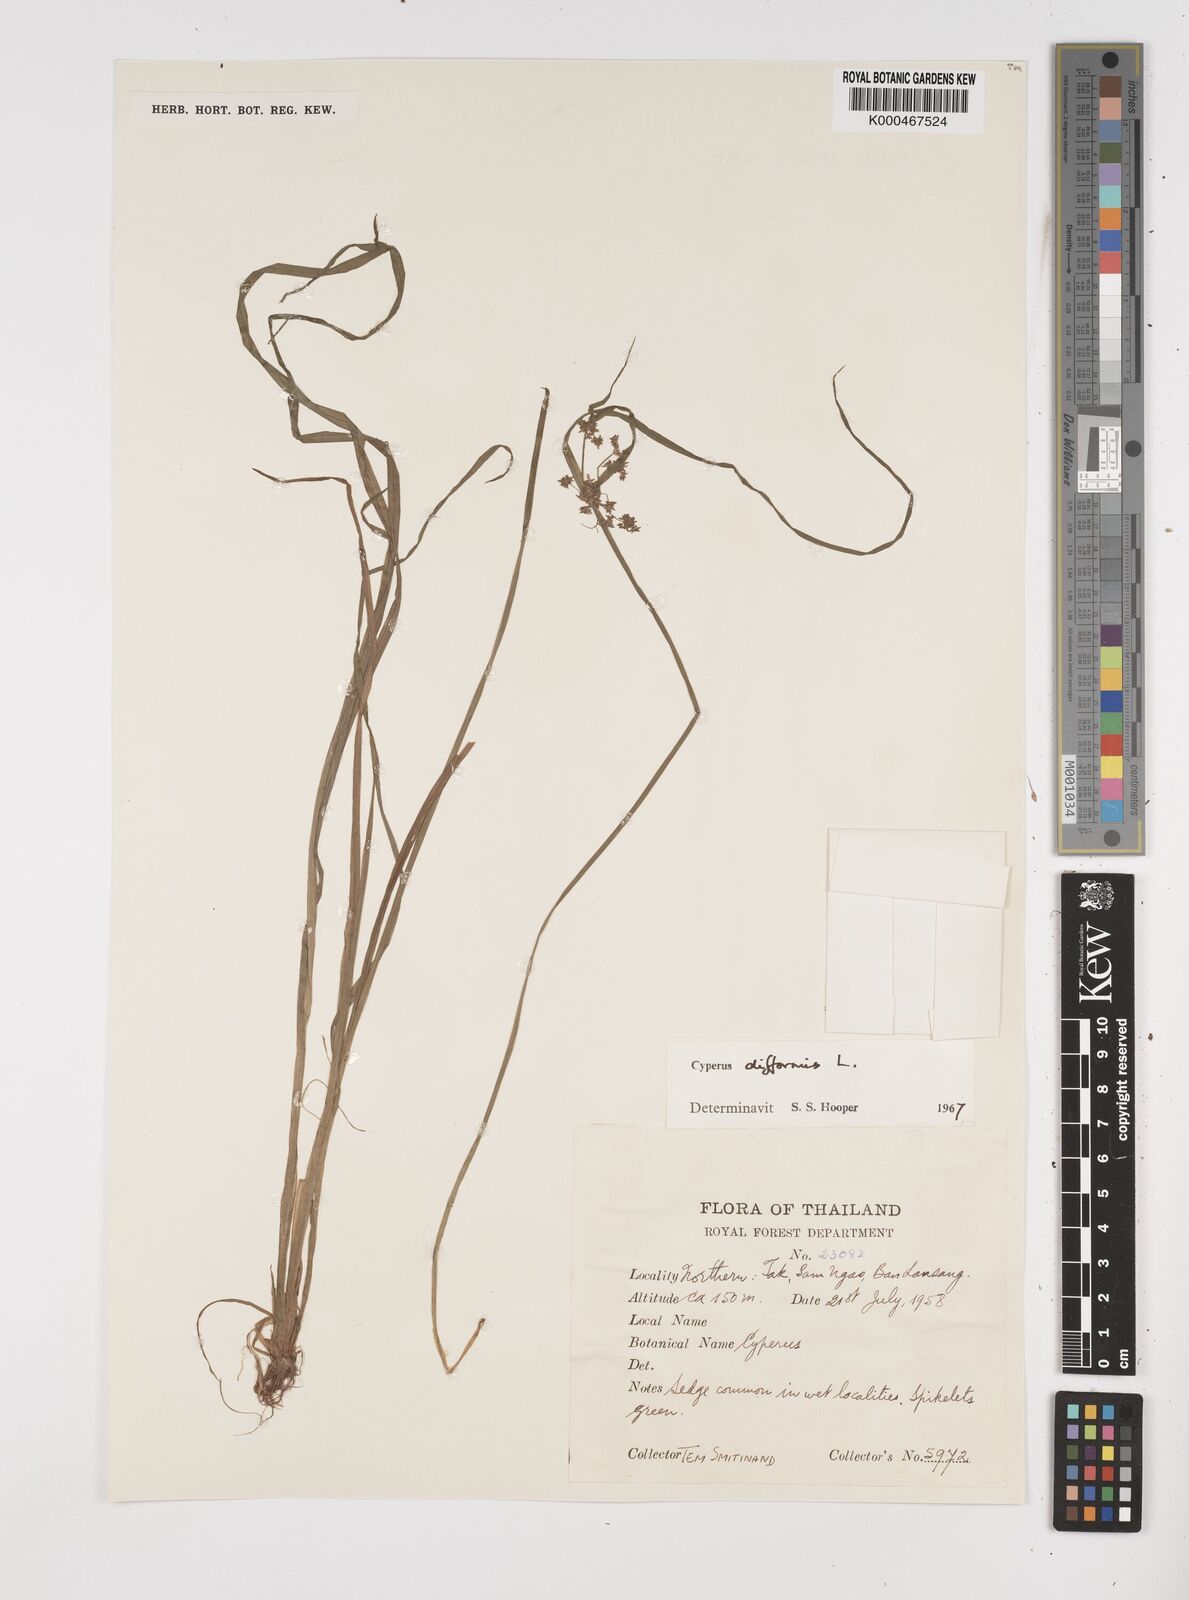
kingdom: Plantae
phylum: Tracheophyta
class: Liliopsida
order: Poales
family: Cyperaceae
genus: Cyperus
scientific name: Cyperus difformis
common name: Variable flatsedge
